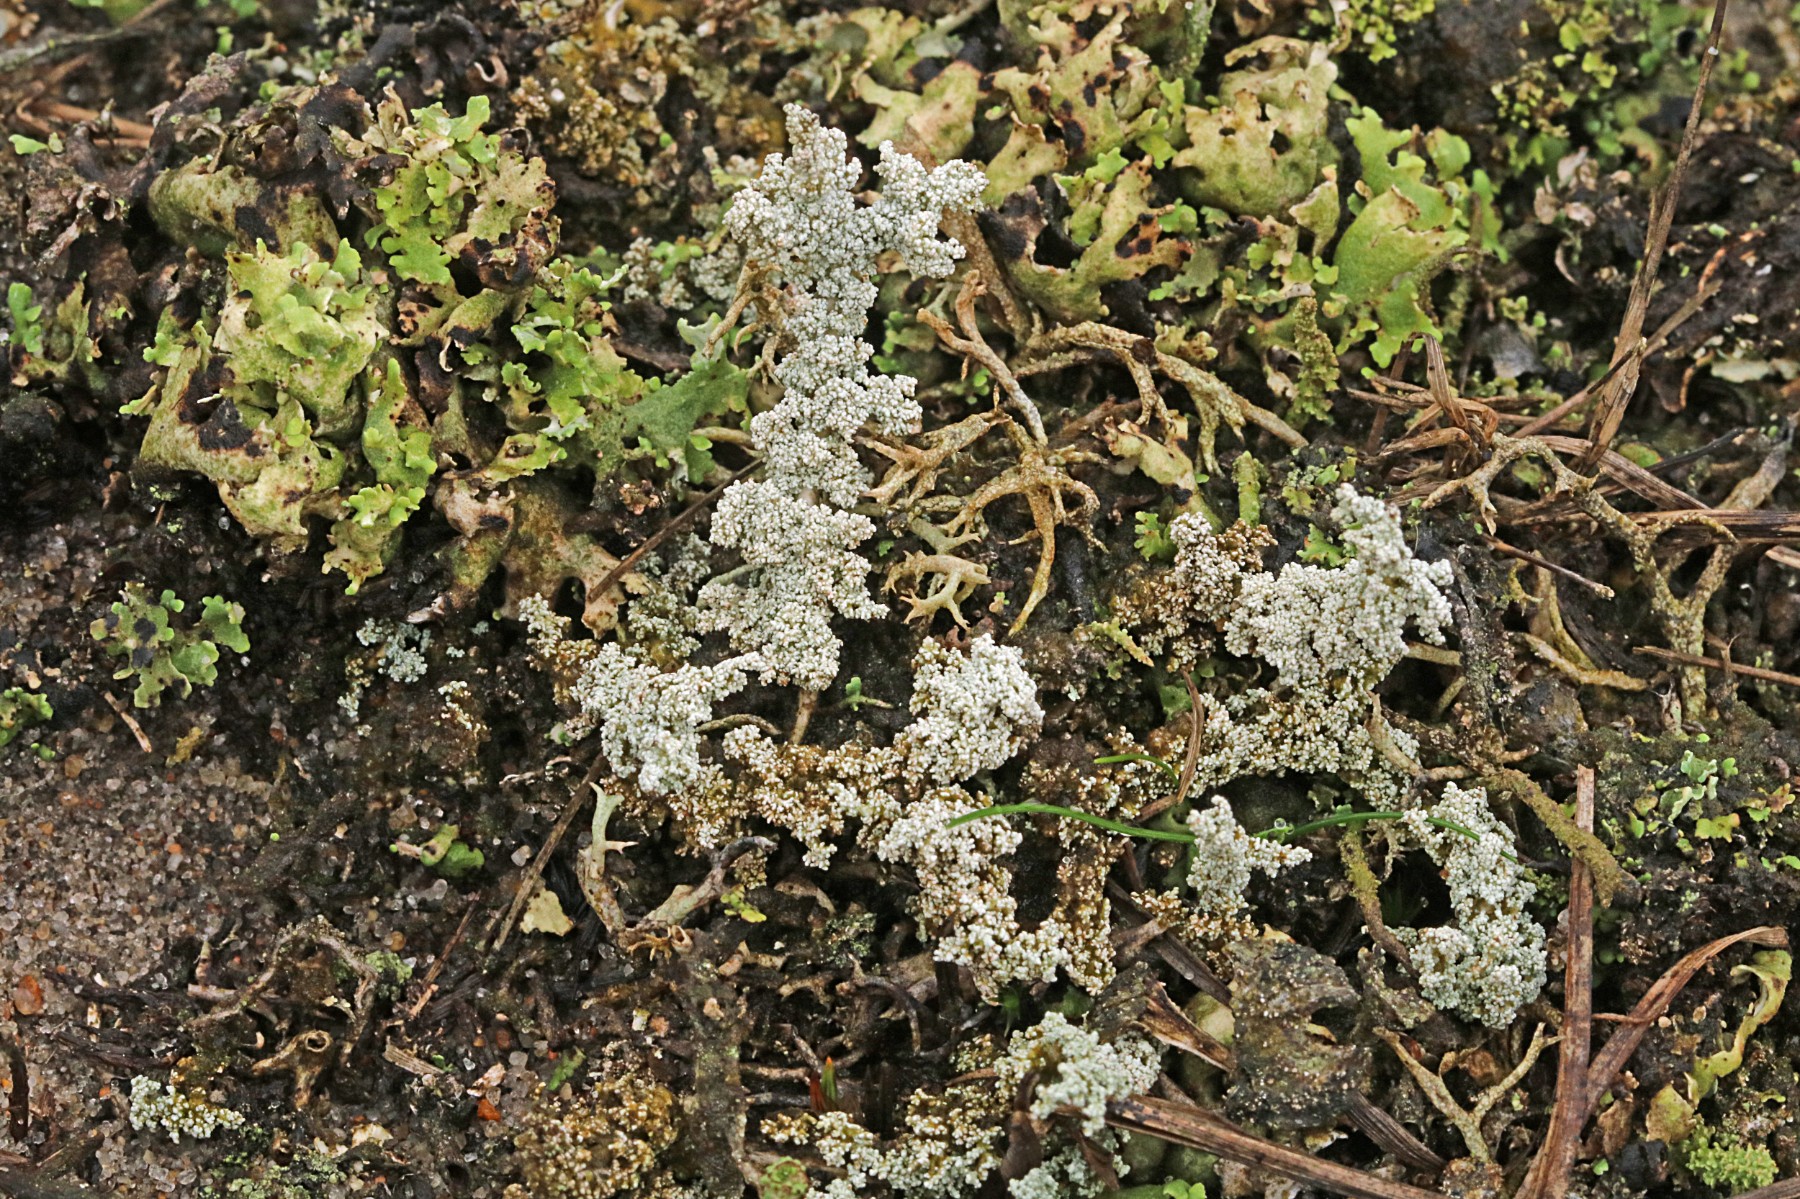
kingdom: Fungi
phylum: Ascomycota
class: Lecanoromycetes
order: Lecanorales
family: Stereocaulaceae
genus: Stereocaulon
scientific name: Stereocaulon saxatile
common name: klit-korallav
